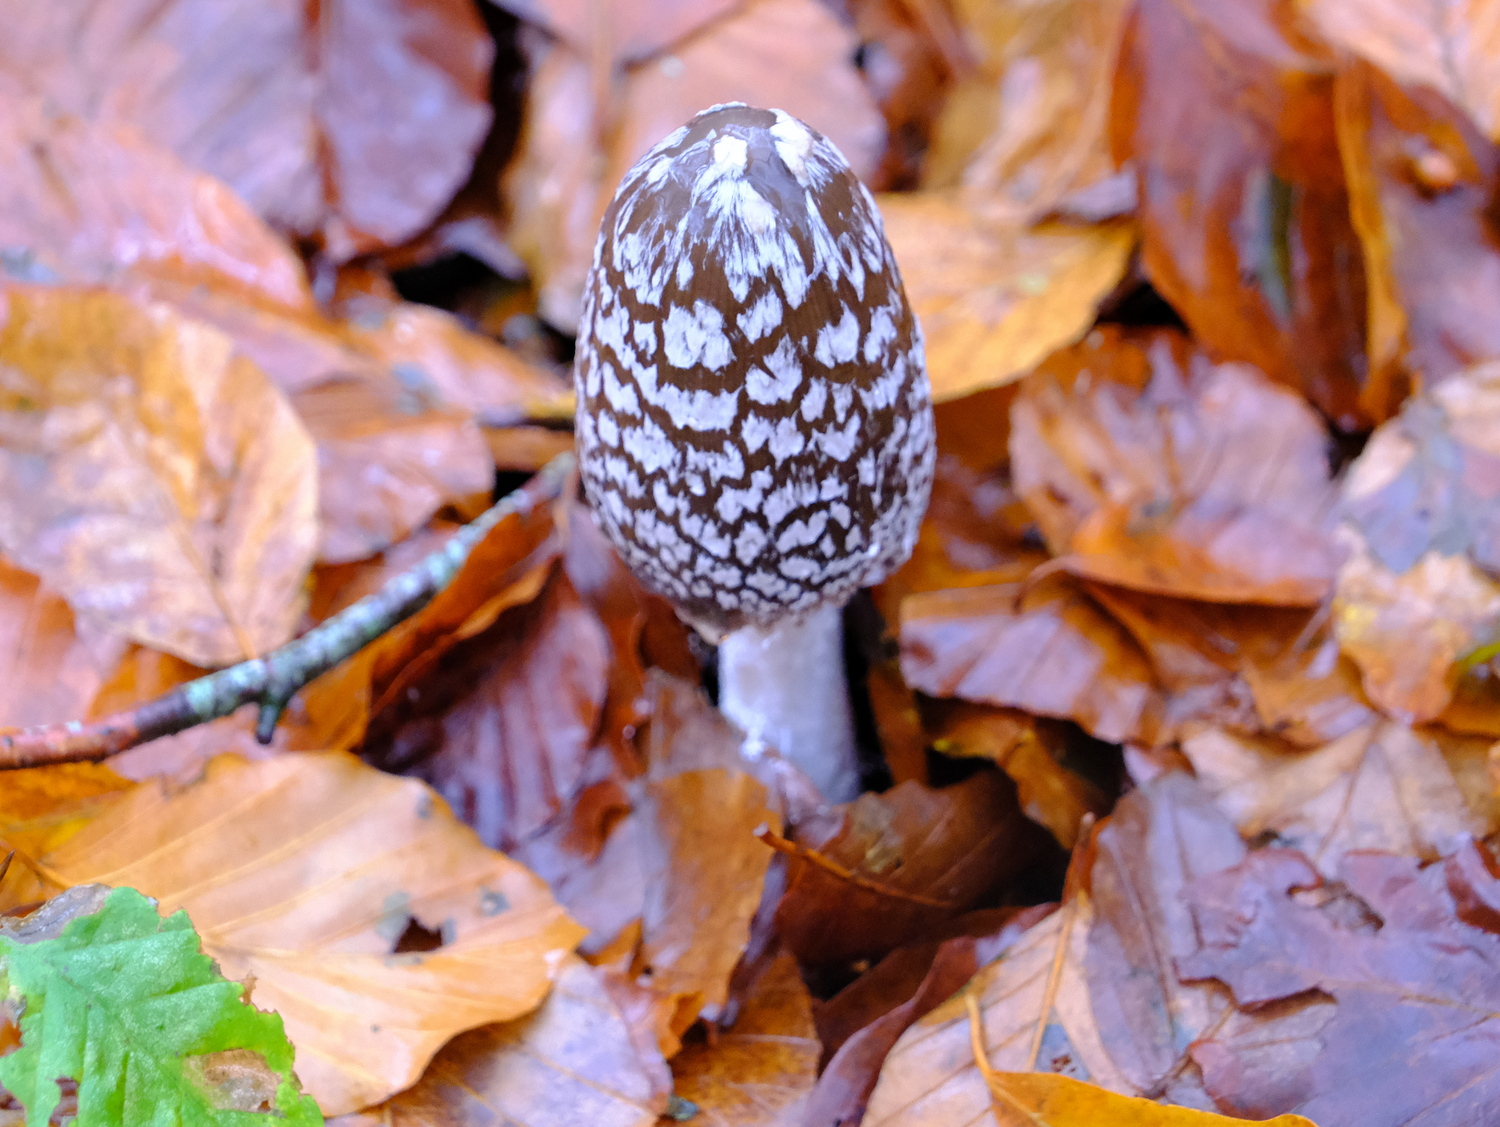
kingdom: Fungi
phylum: Basidiomycota
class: Agaricomycetes
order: Agaricales
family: Psathyrellaceae
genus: Coprinopsis
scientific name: Coprinopsis picacea
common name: skade-blækhat
